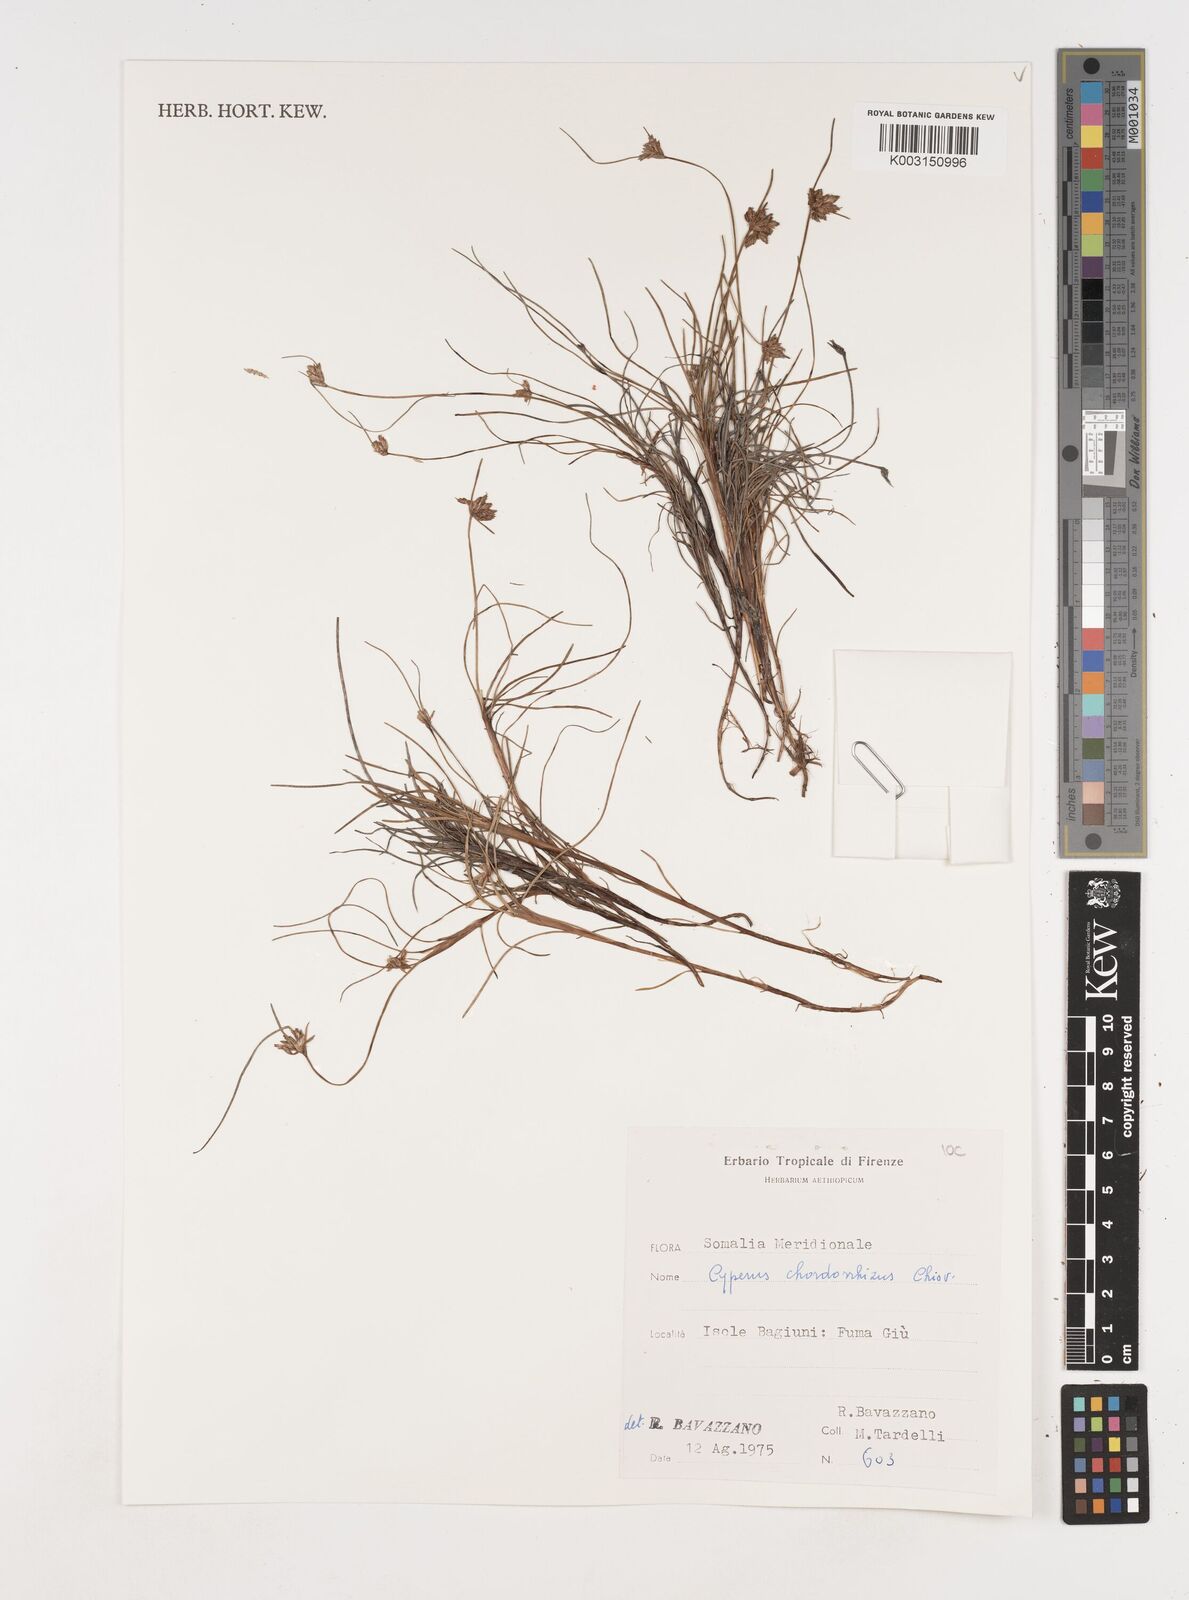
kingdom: Plantae
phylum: Tracheophyta
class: Liliopsida
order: Poales
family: Cyperaceae
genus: Cyperus
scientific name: Cyperus chordorrhizus
